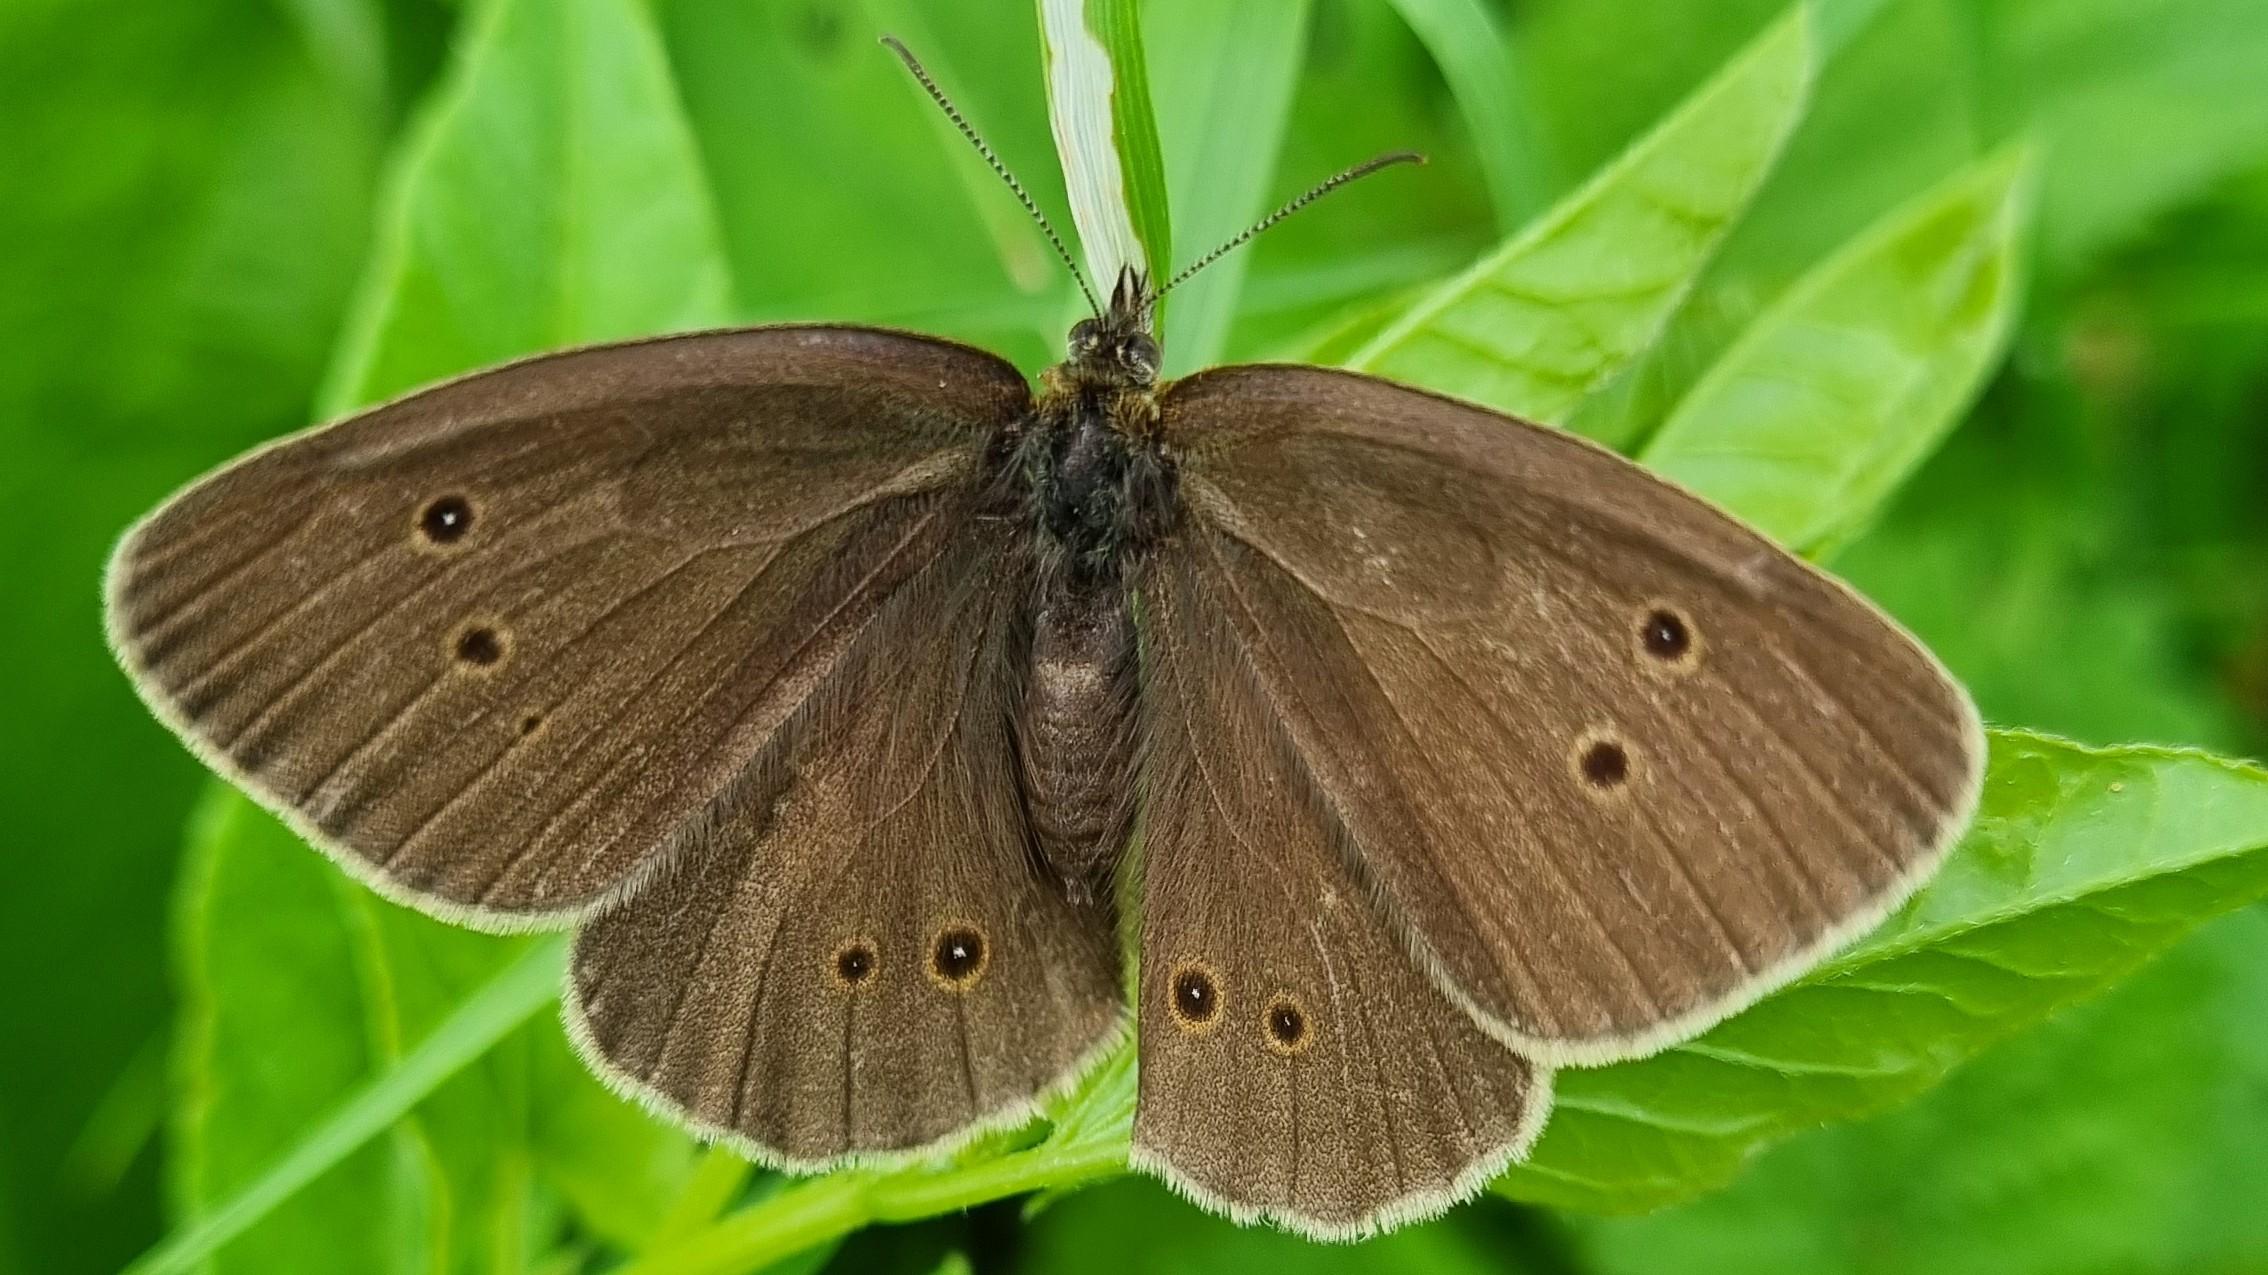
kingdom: Animalia
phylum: Arthropoda
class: Insecta
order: Lepidoptera
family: Nymphalidae
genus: Aphantopus
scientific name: Aphantopus hyperantus
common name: Engrandøje
